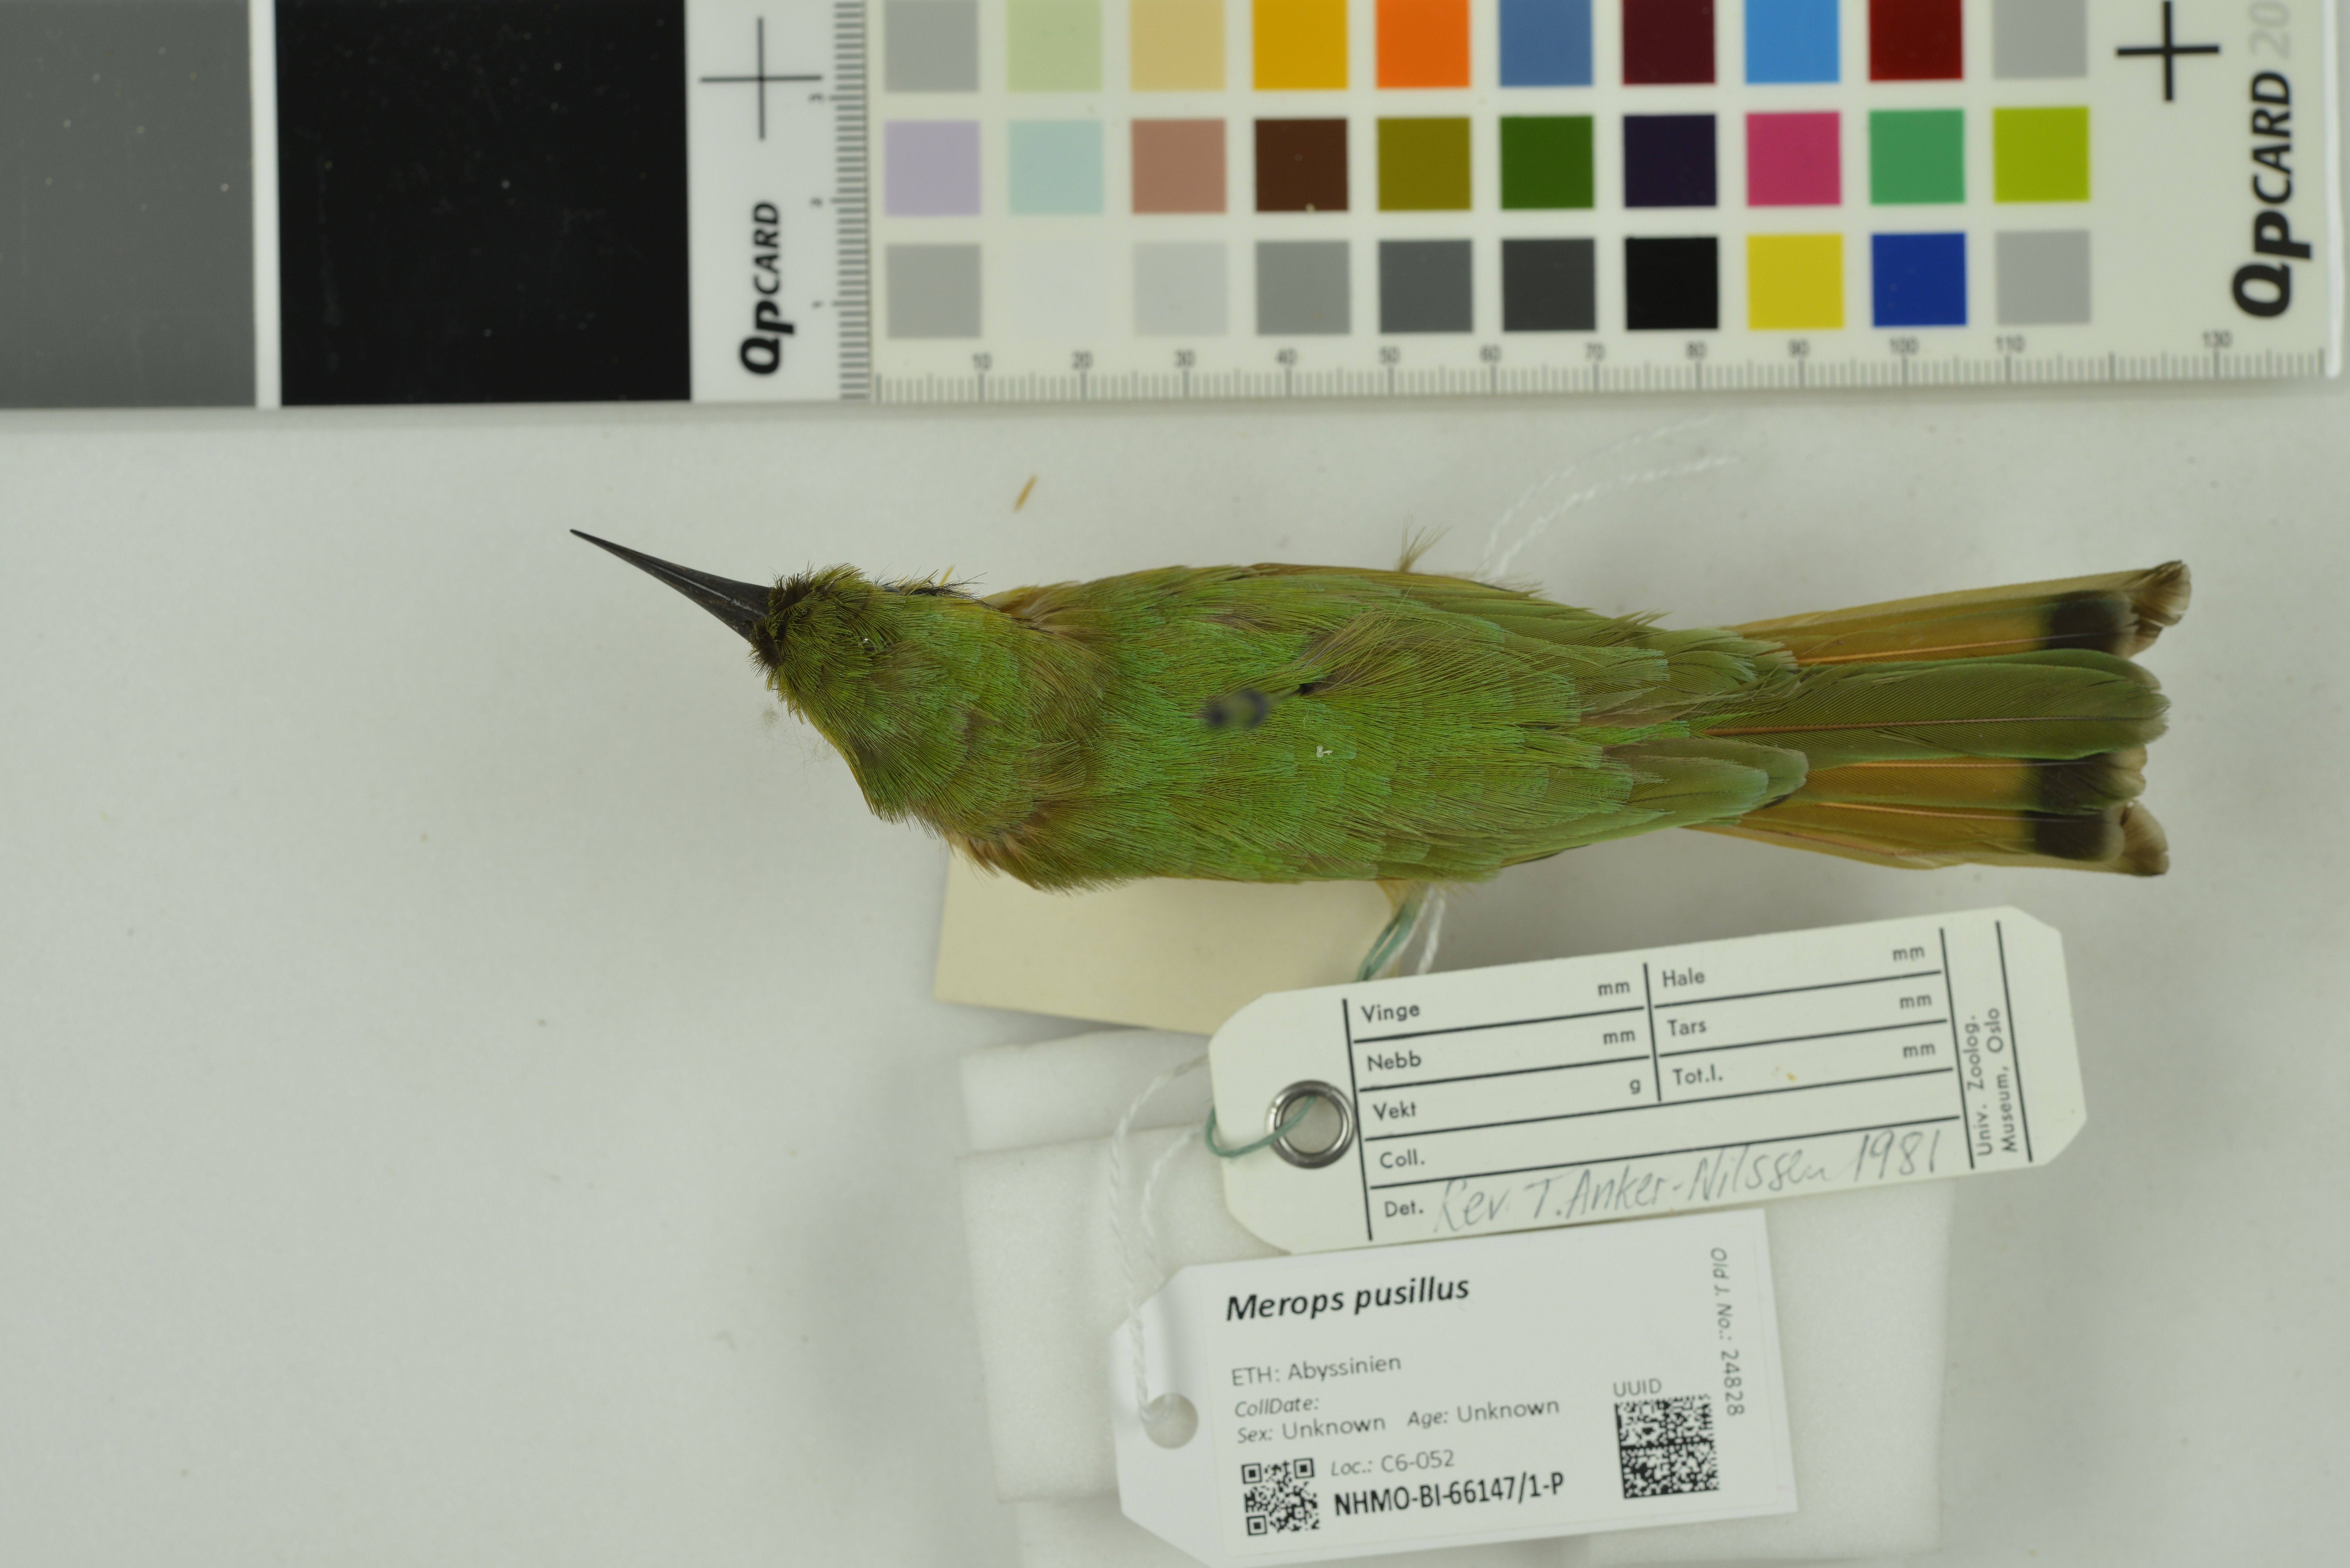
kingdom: Animalia
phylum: Chordata
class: Aves
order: Coraciiformes
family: Meropidae
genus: Merops
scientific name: Merops pusillus
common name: Little bee-eater
